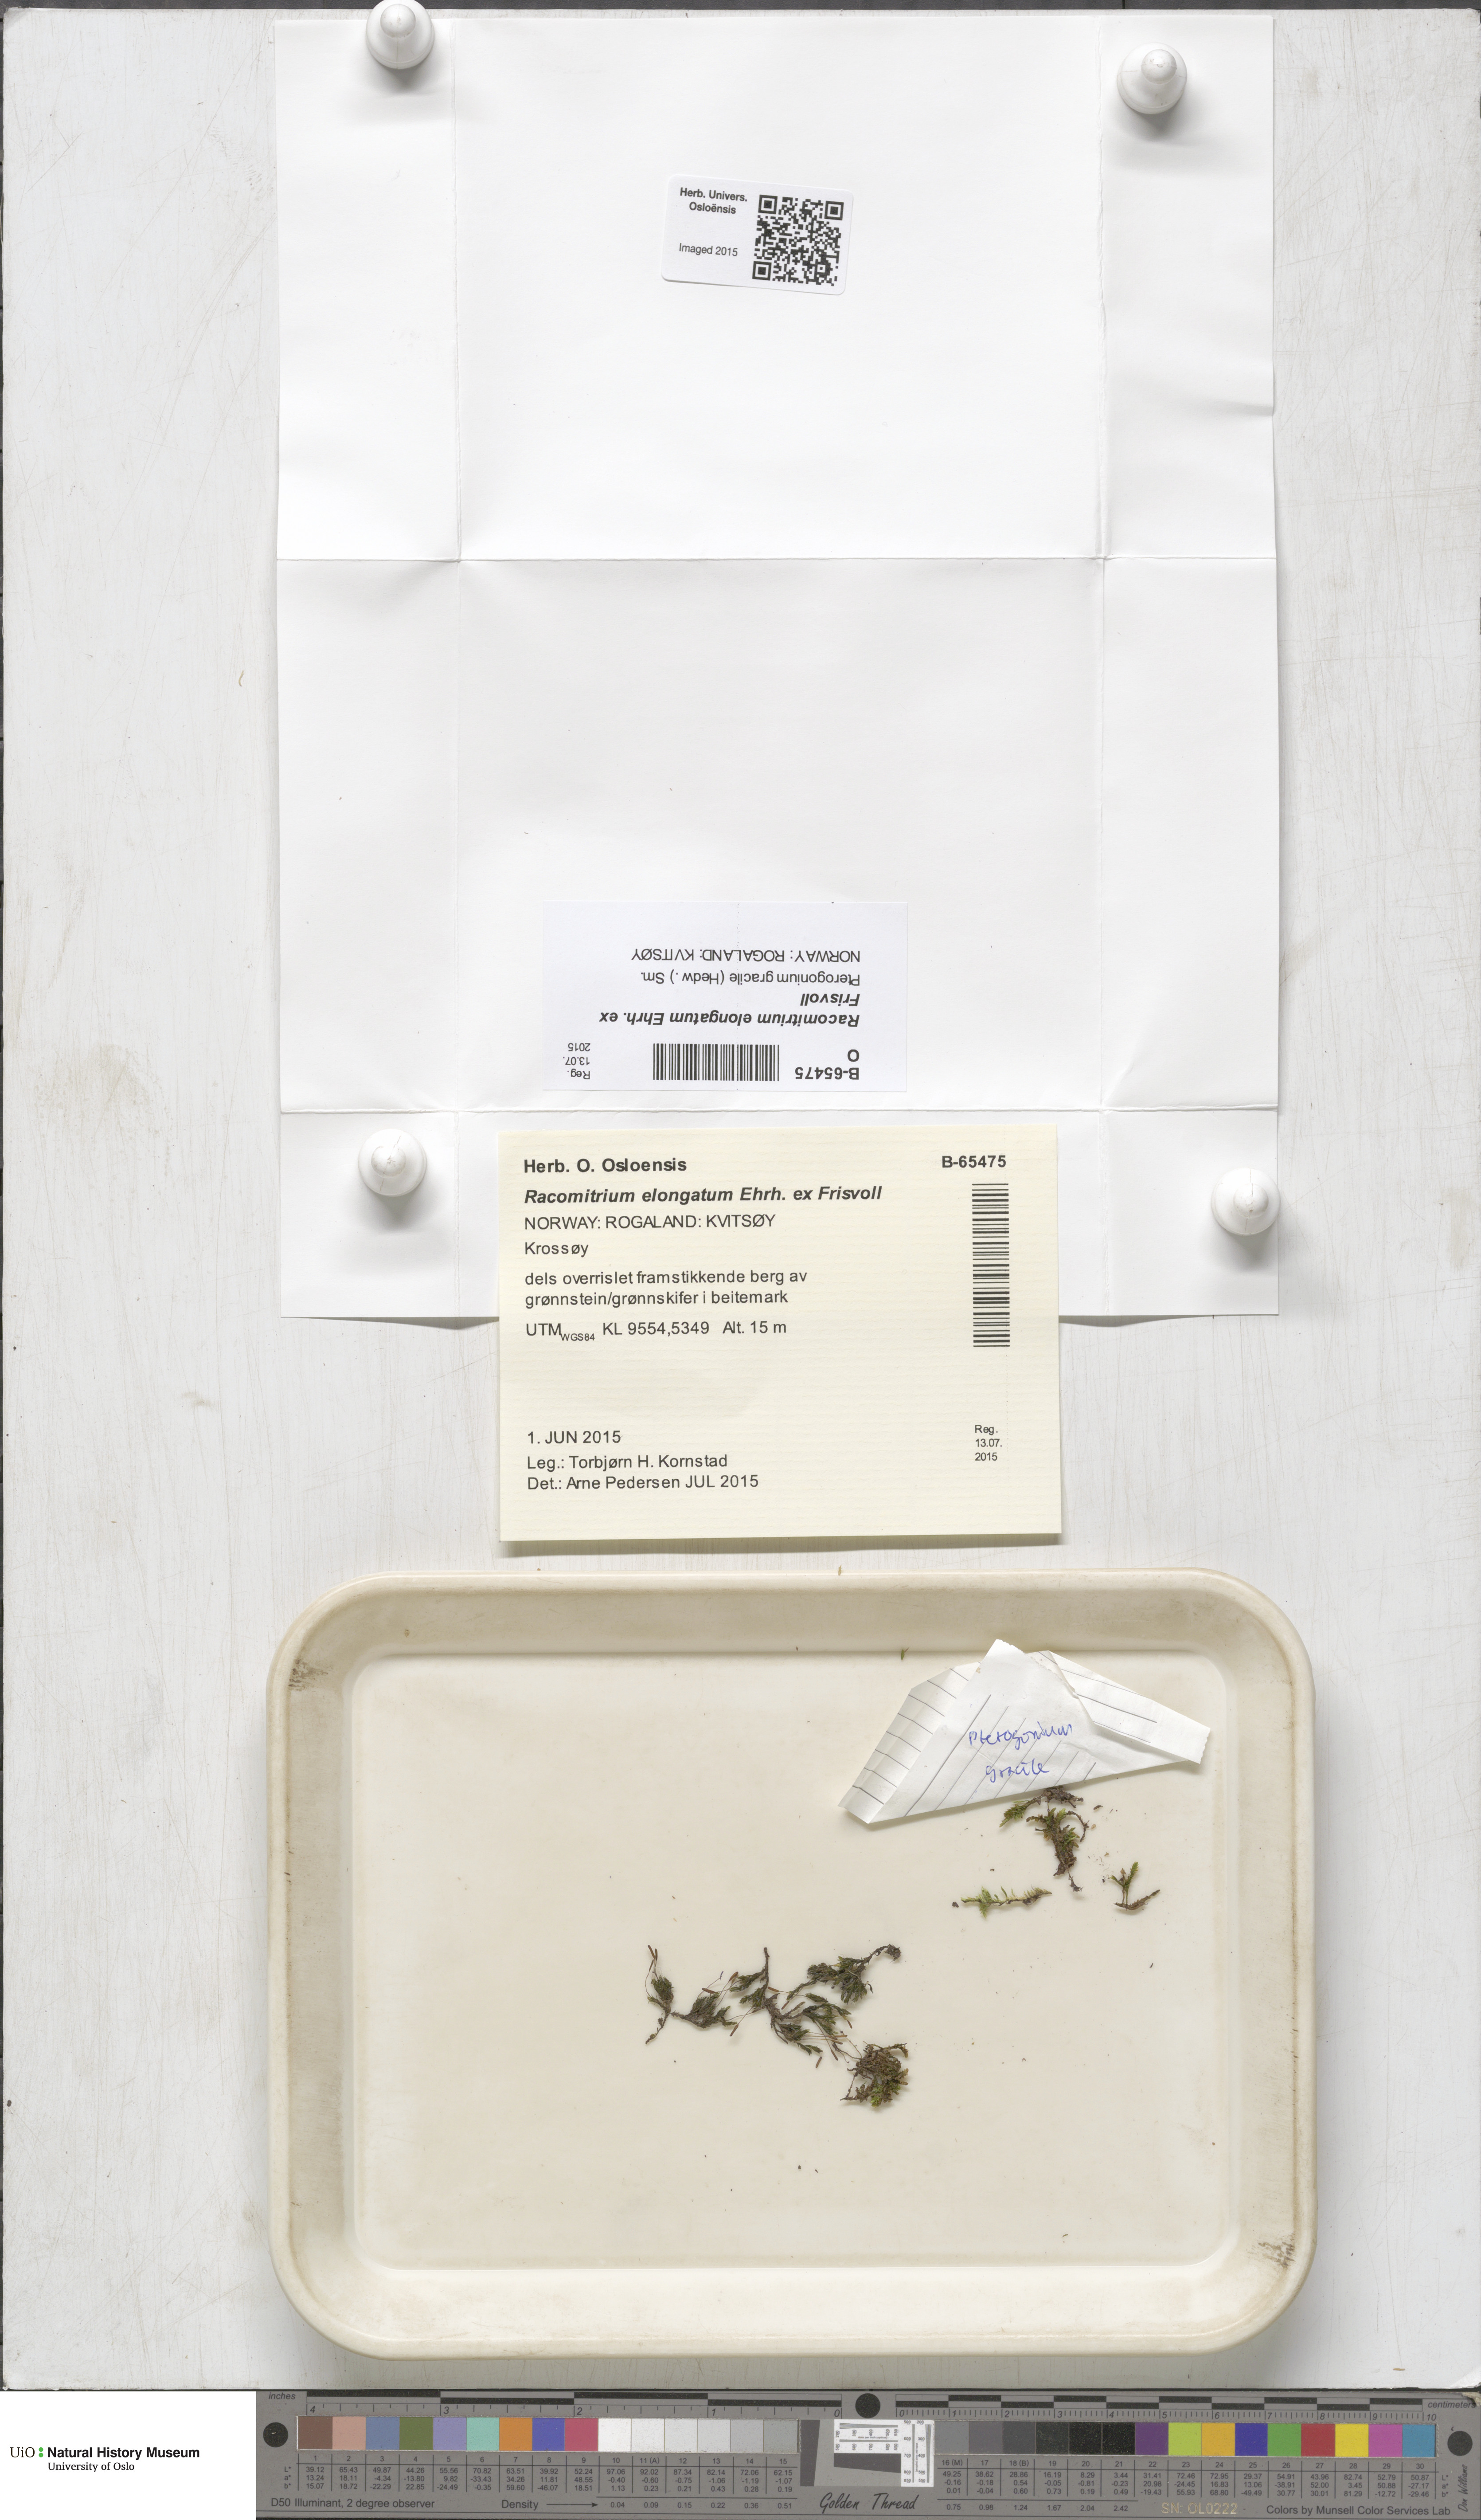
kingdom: Plantae
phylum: Bryophyta
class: Bryopsida
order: Grimmiales
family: Grimmiaceae
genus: Niphotrichum
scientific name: Niphotrichum elongatum
